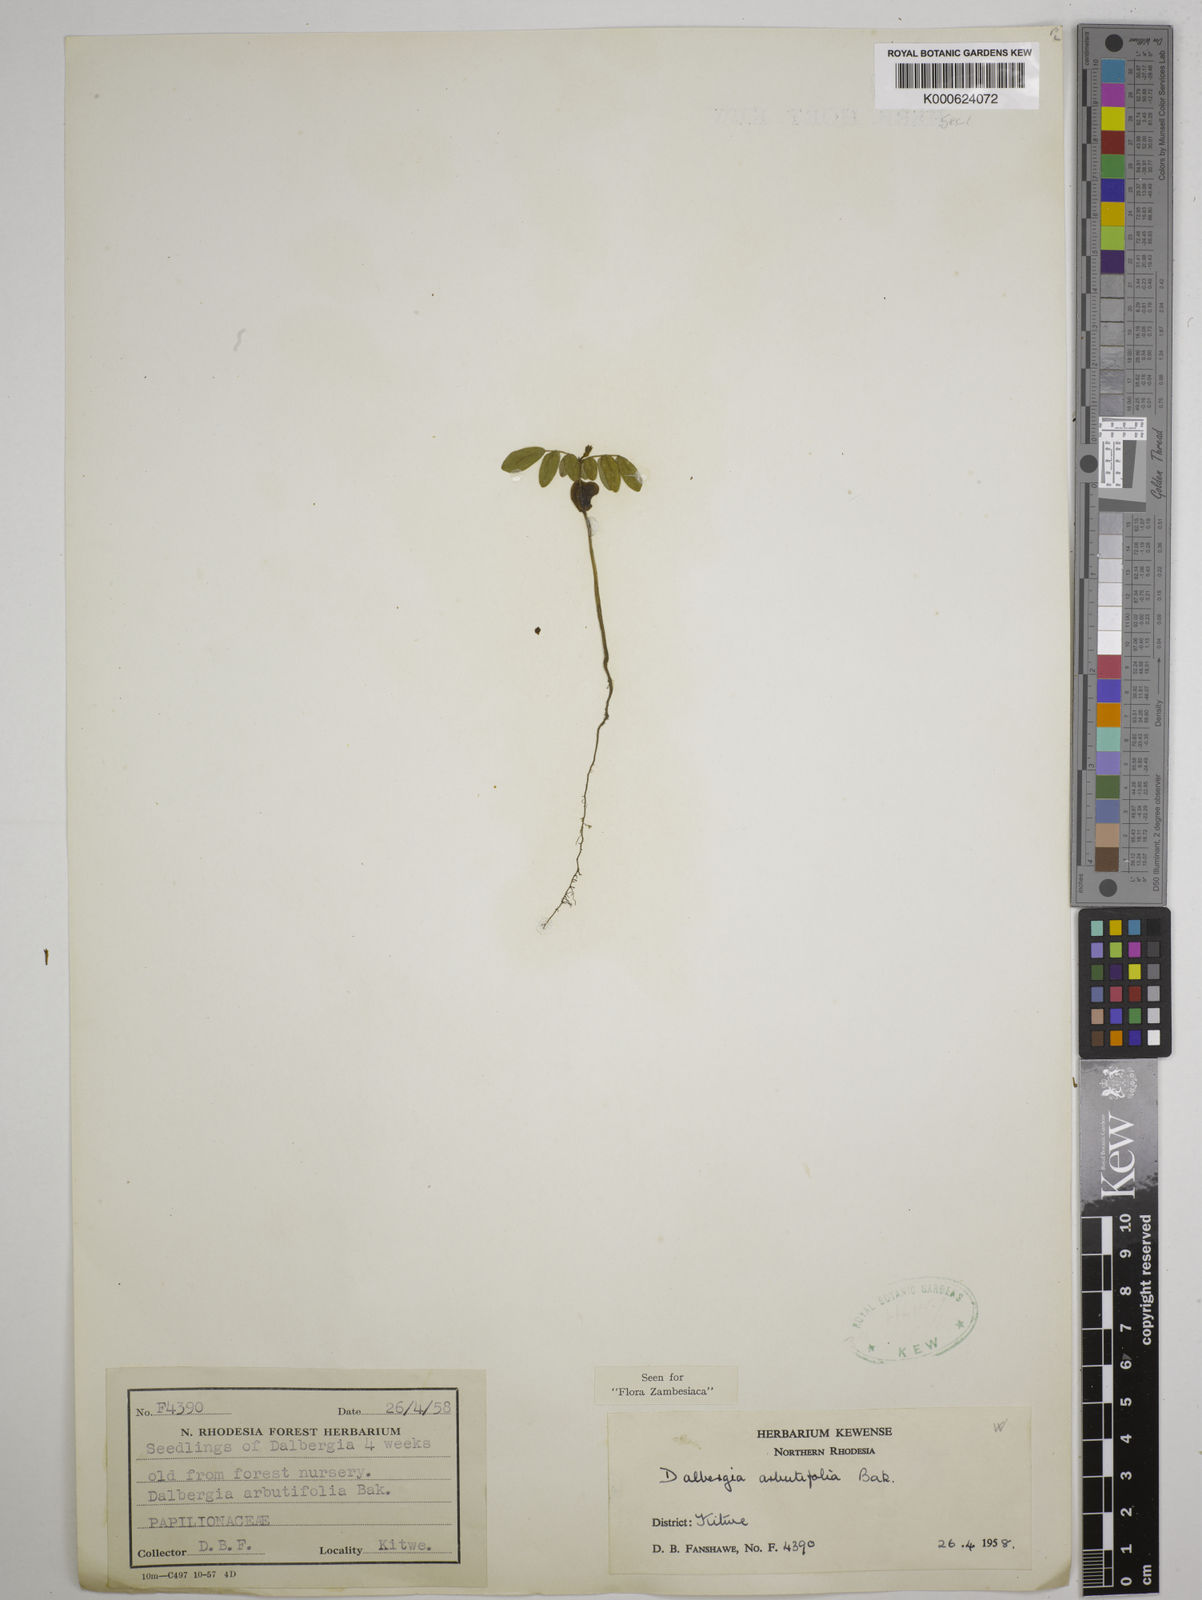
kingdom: Plantae
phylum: Tracheophyta
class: Magnoliopsida
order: Fabales
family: Fabaceae
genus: Dalbergia
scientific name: Dalbergia arbutifolia
